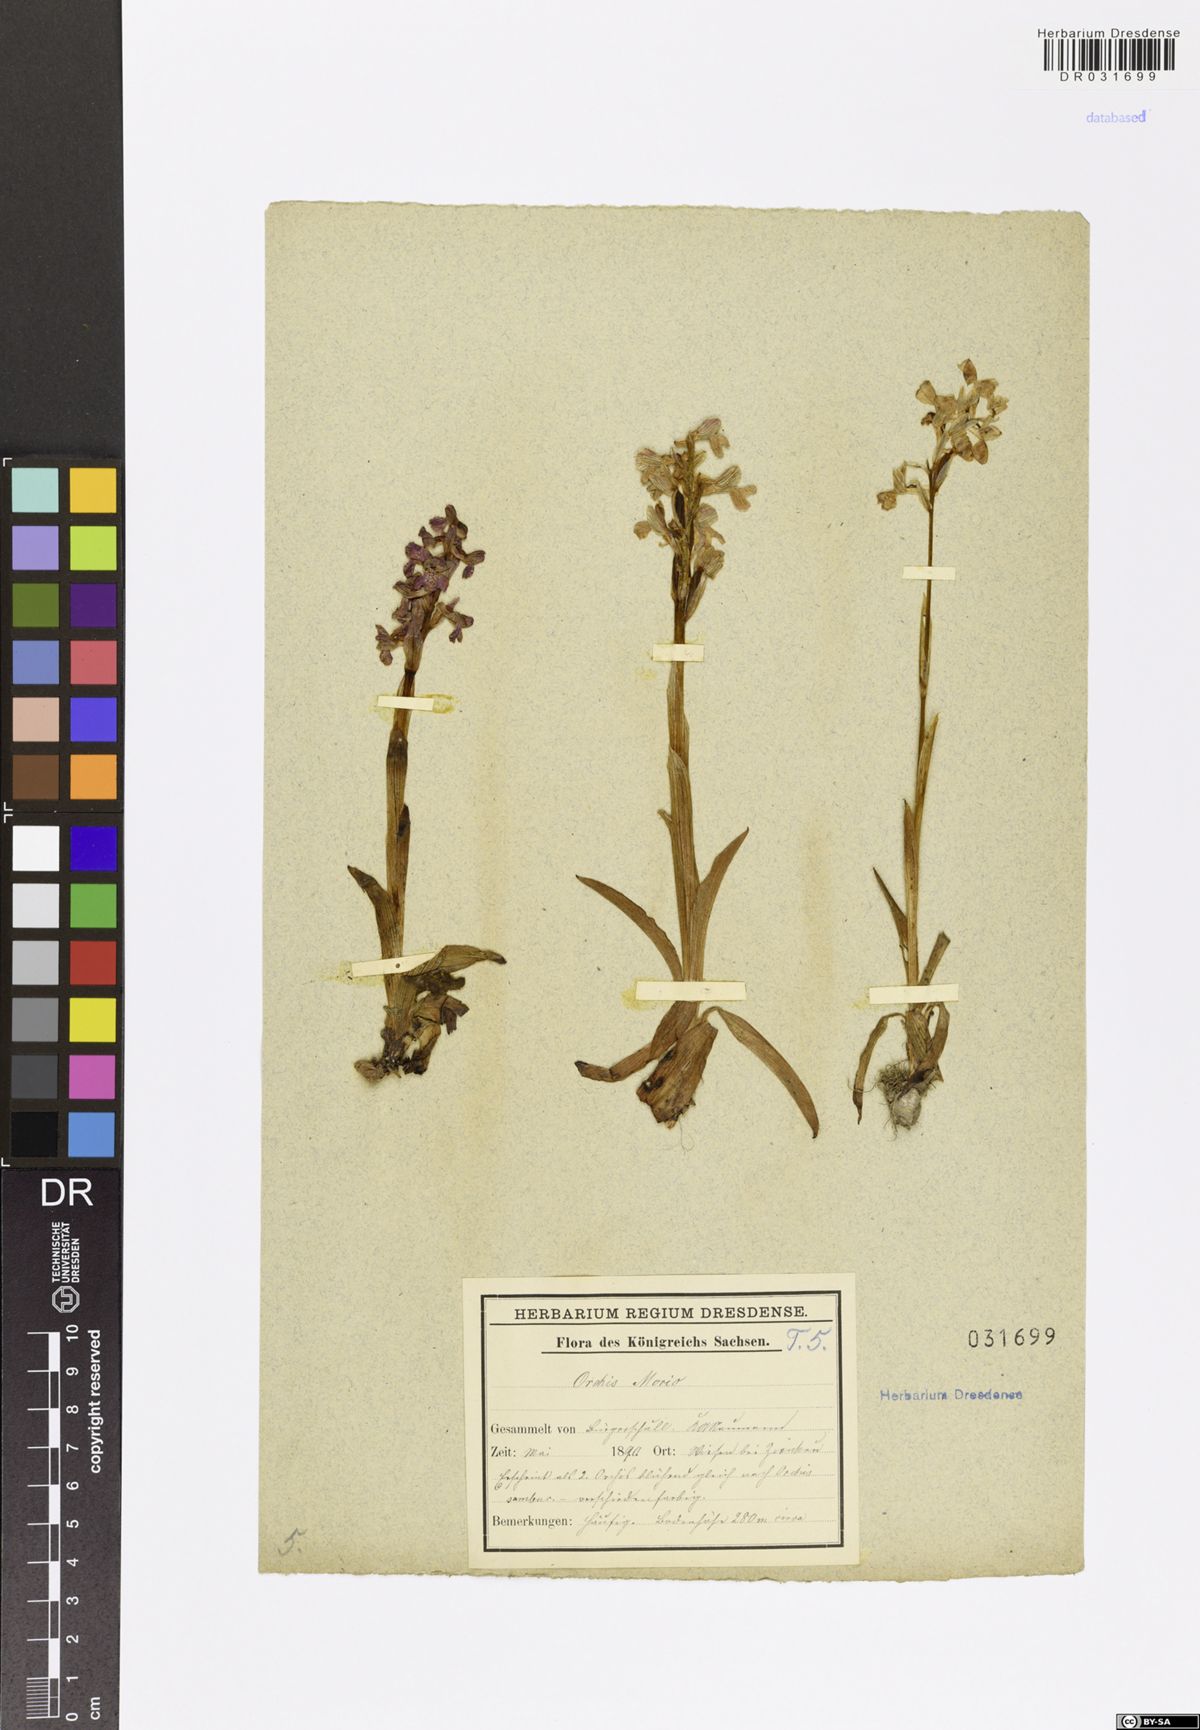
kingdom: Plantae
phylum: Tracheophyta
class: Liliopsida
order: Asparagales
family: Orchidaceae
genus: Anacamptis
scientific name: Anacamptis morio
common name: Green-winged orchid
